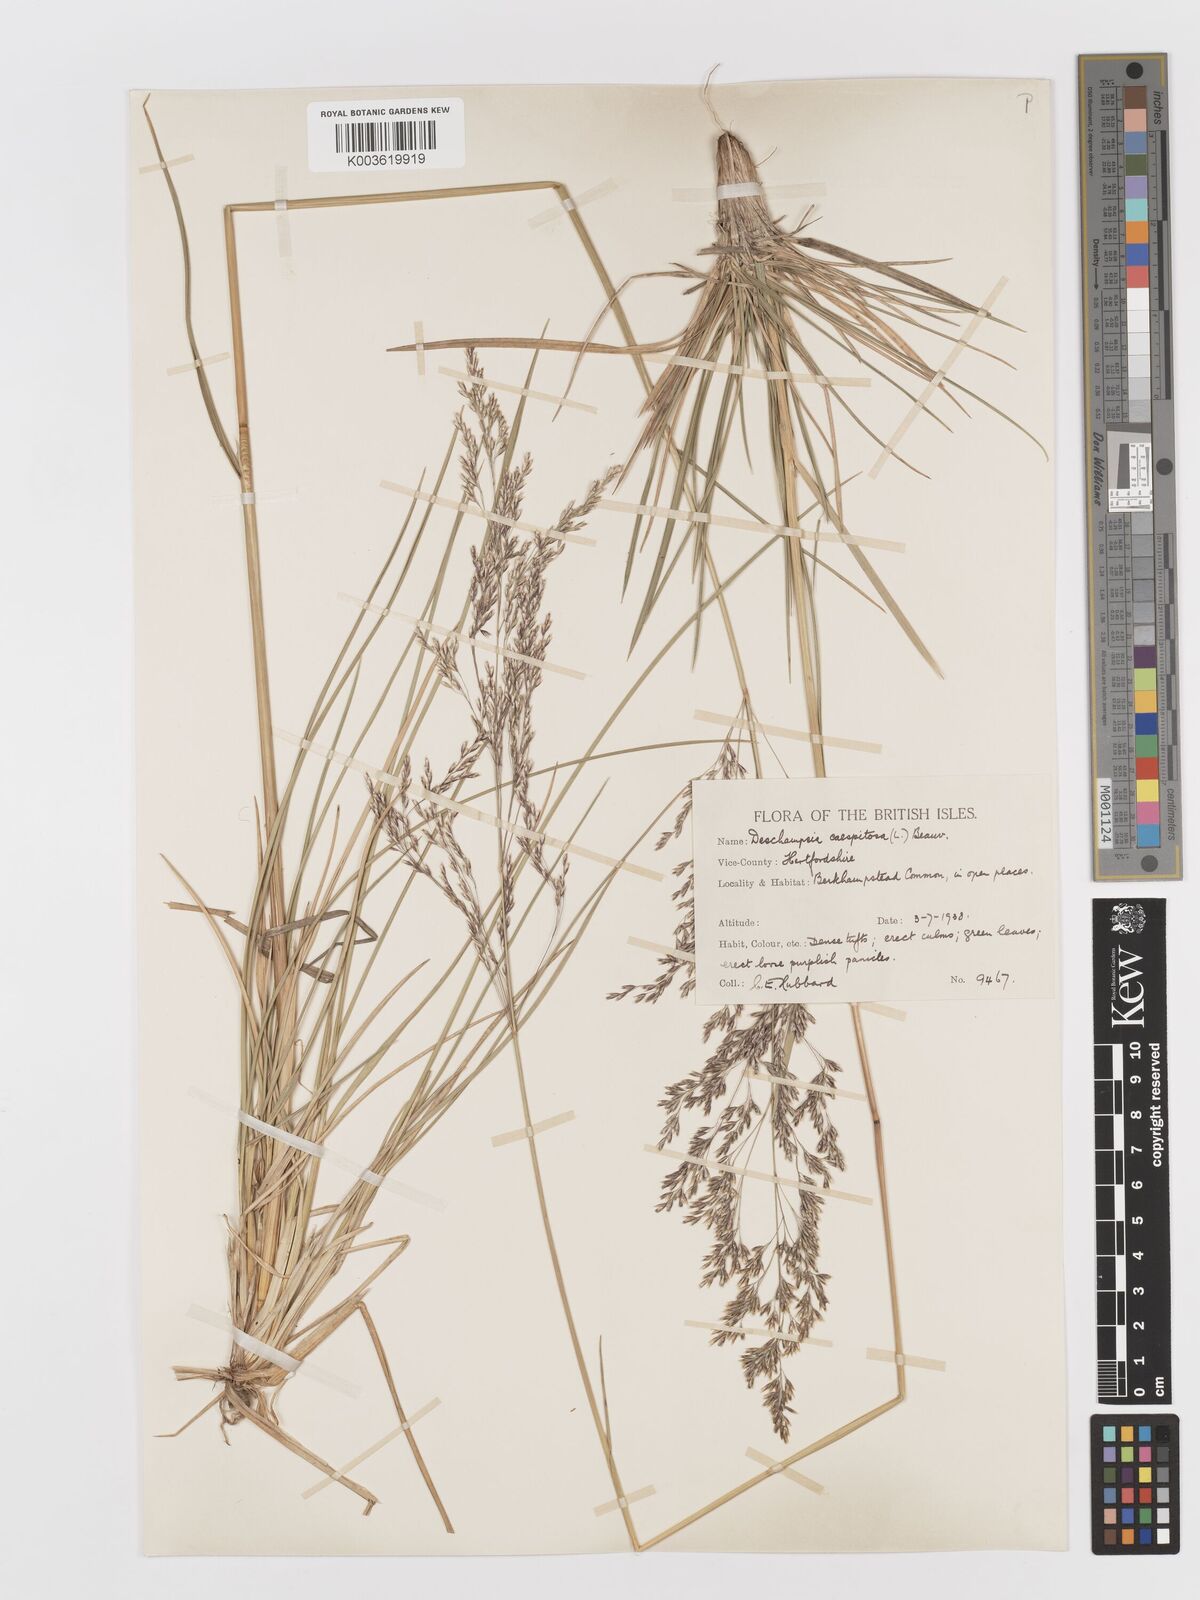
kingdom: Plantae
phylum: Tracheophyta
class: Liliopsida
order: Poales
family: Poaceae
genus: Deschampsia
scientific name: Deschampsia cespitosa
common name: Tufted hair-grass
